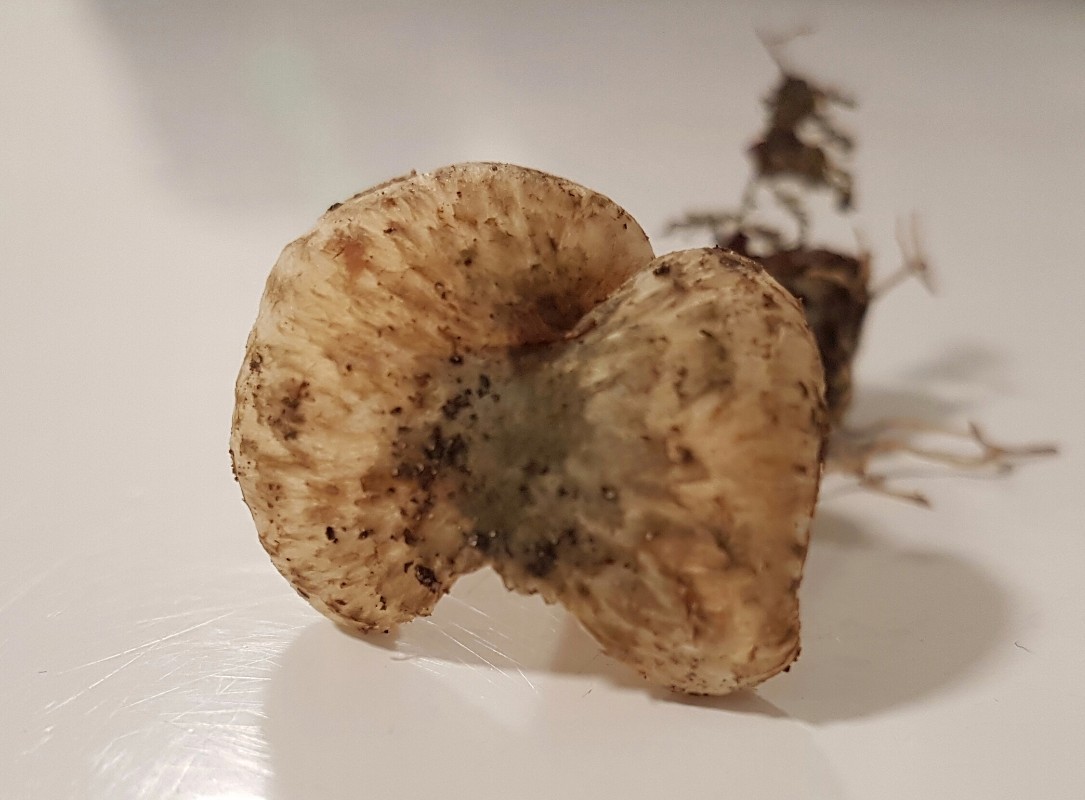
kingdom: Fungi
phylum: Basidiomycota
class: Agaricomycetes
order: Agaricales
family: Inocybaceae
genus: Inocybe
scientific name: Inocybe erinaceomorpha
